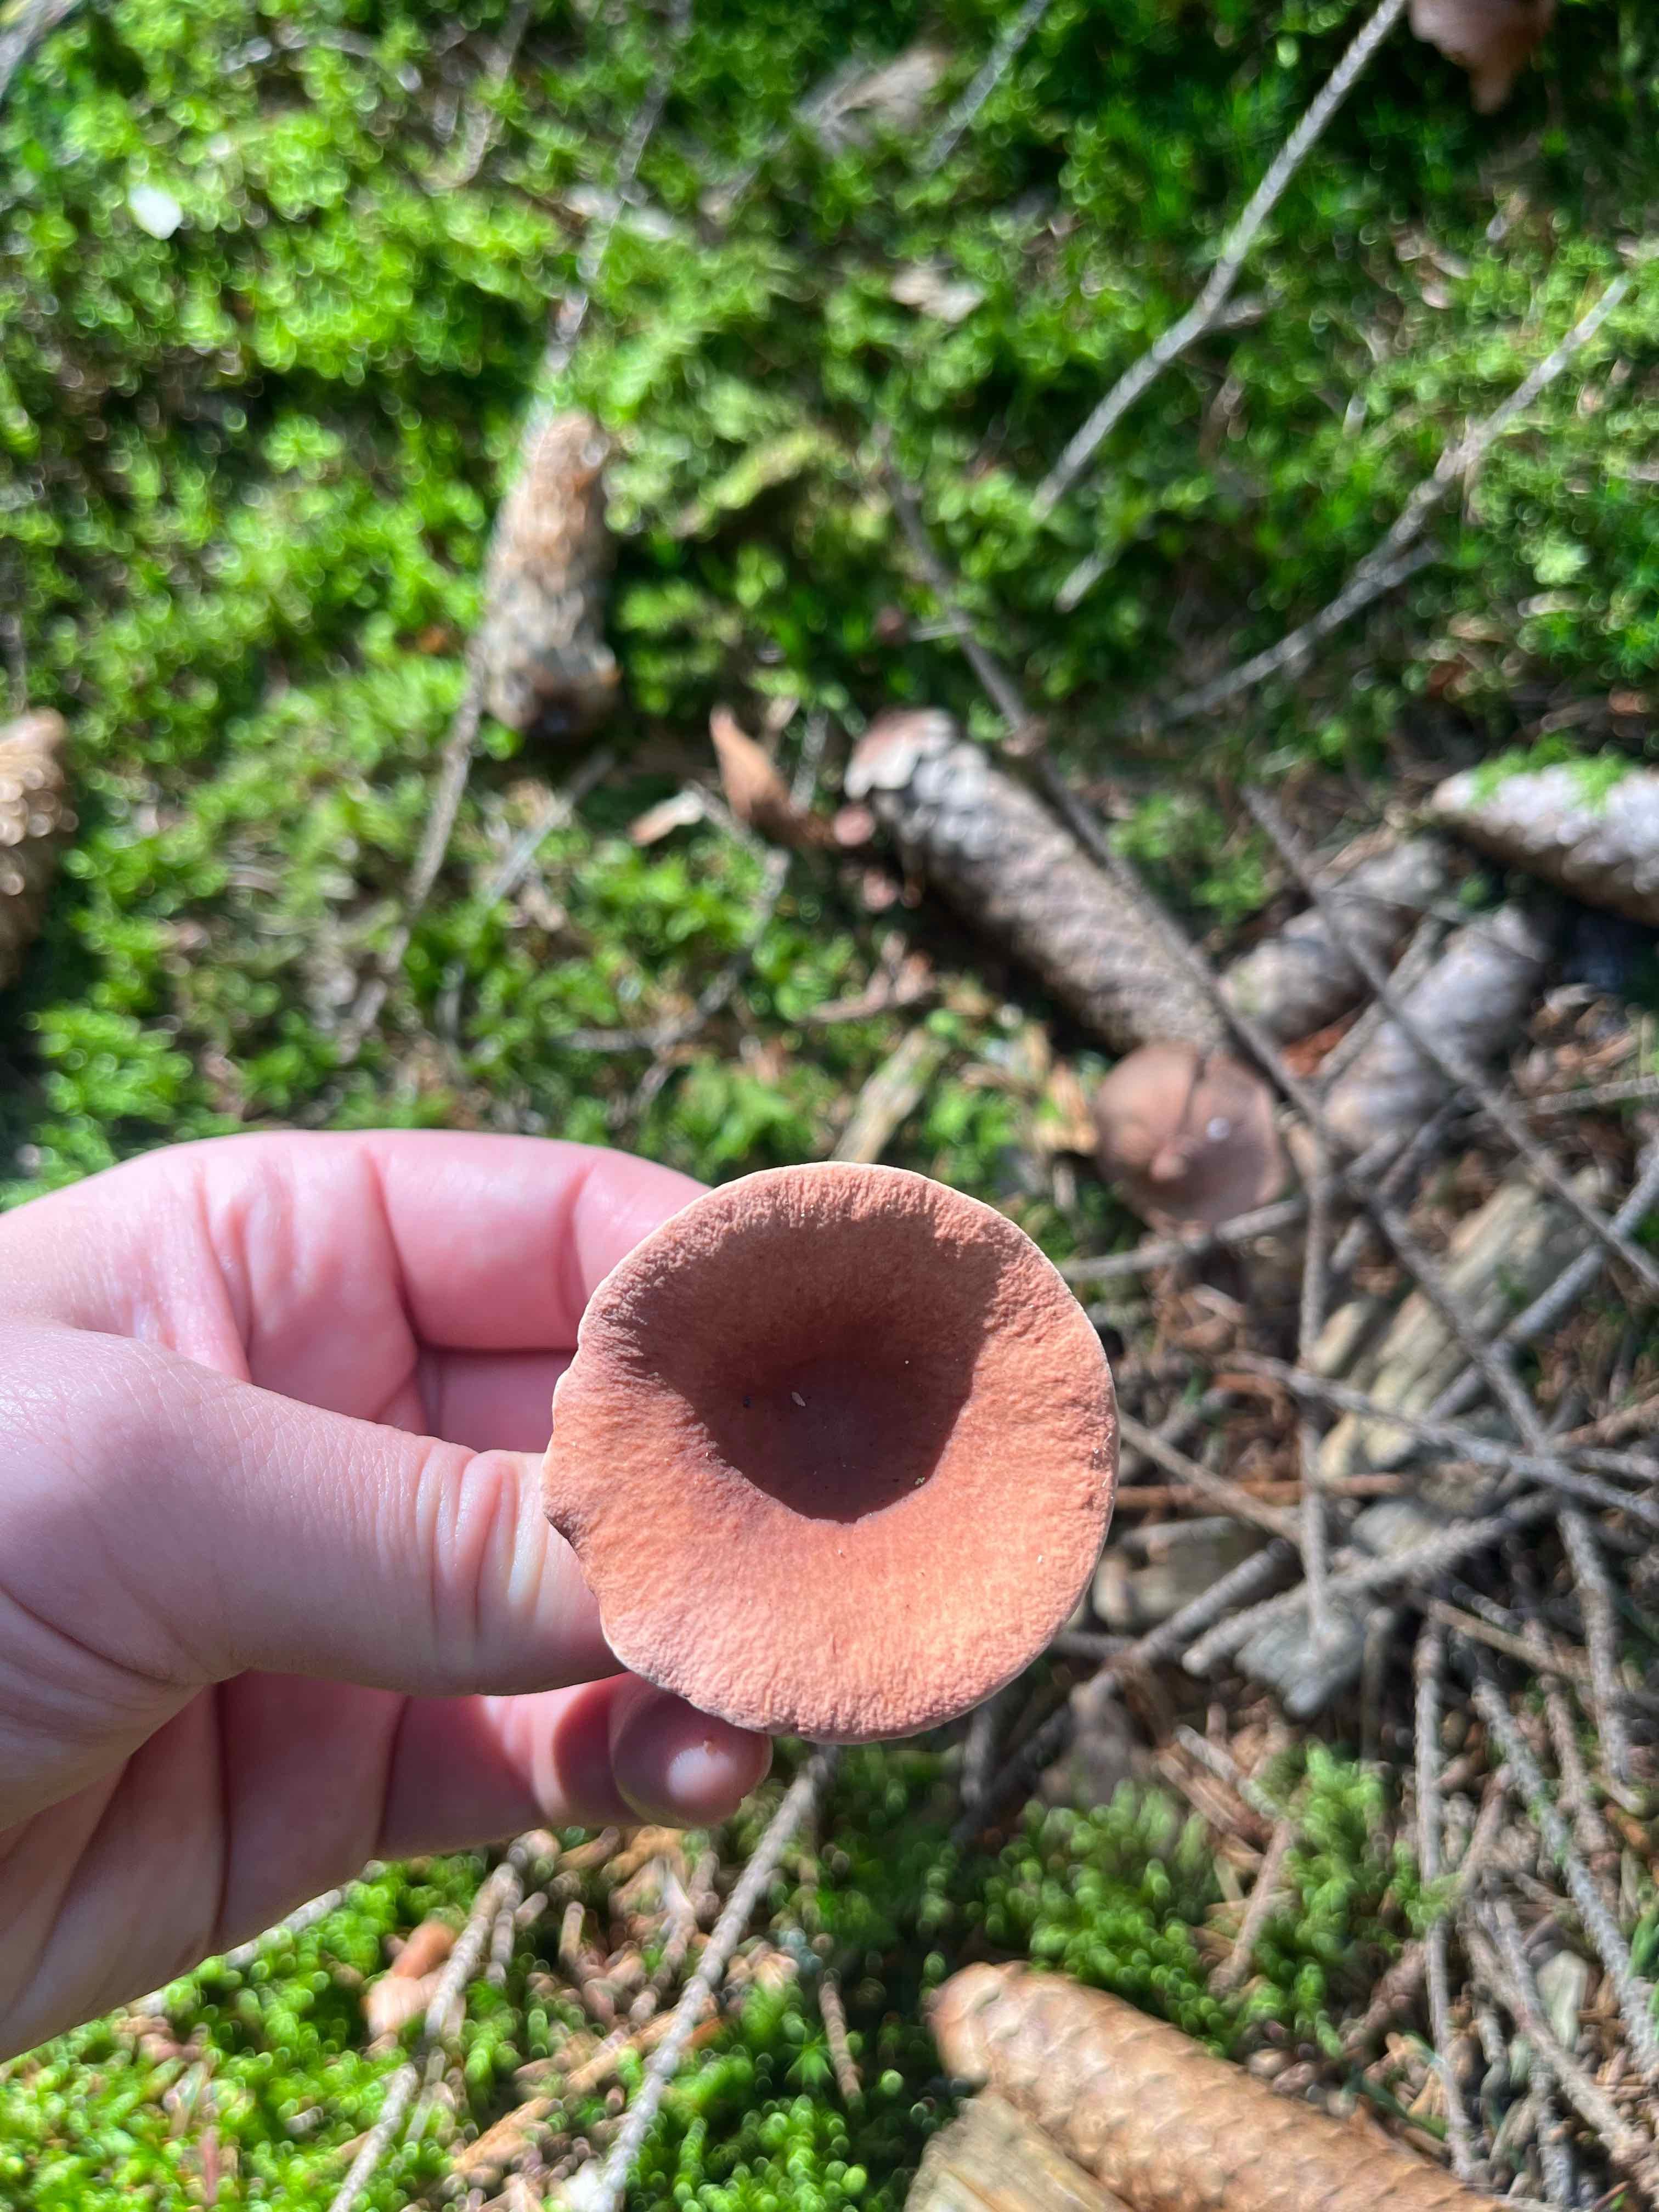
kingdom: Fungi
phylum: Basidiomycota
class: Agaricomycetes
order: Russulales
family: Russulaceae
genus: Lactarius
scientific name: Lactarius camphoratus
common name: kamfer-mælkehat
